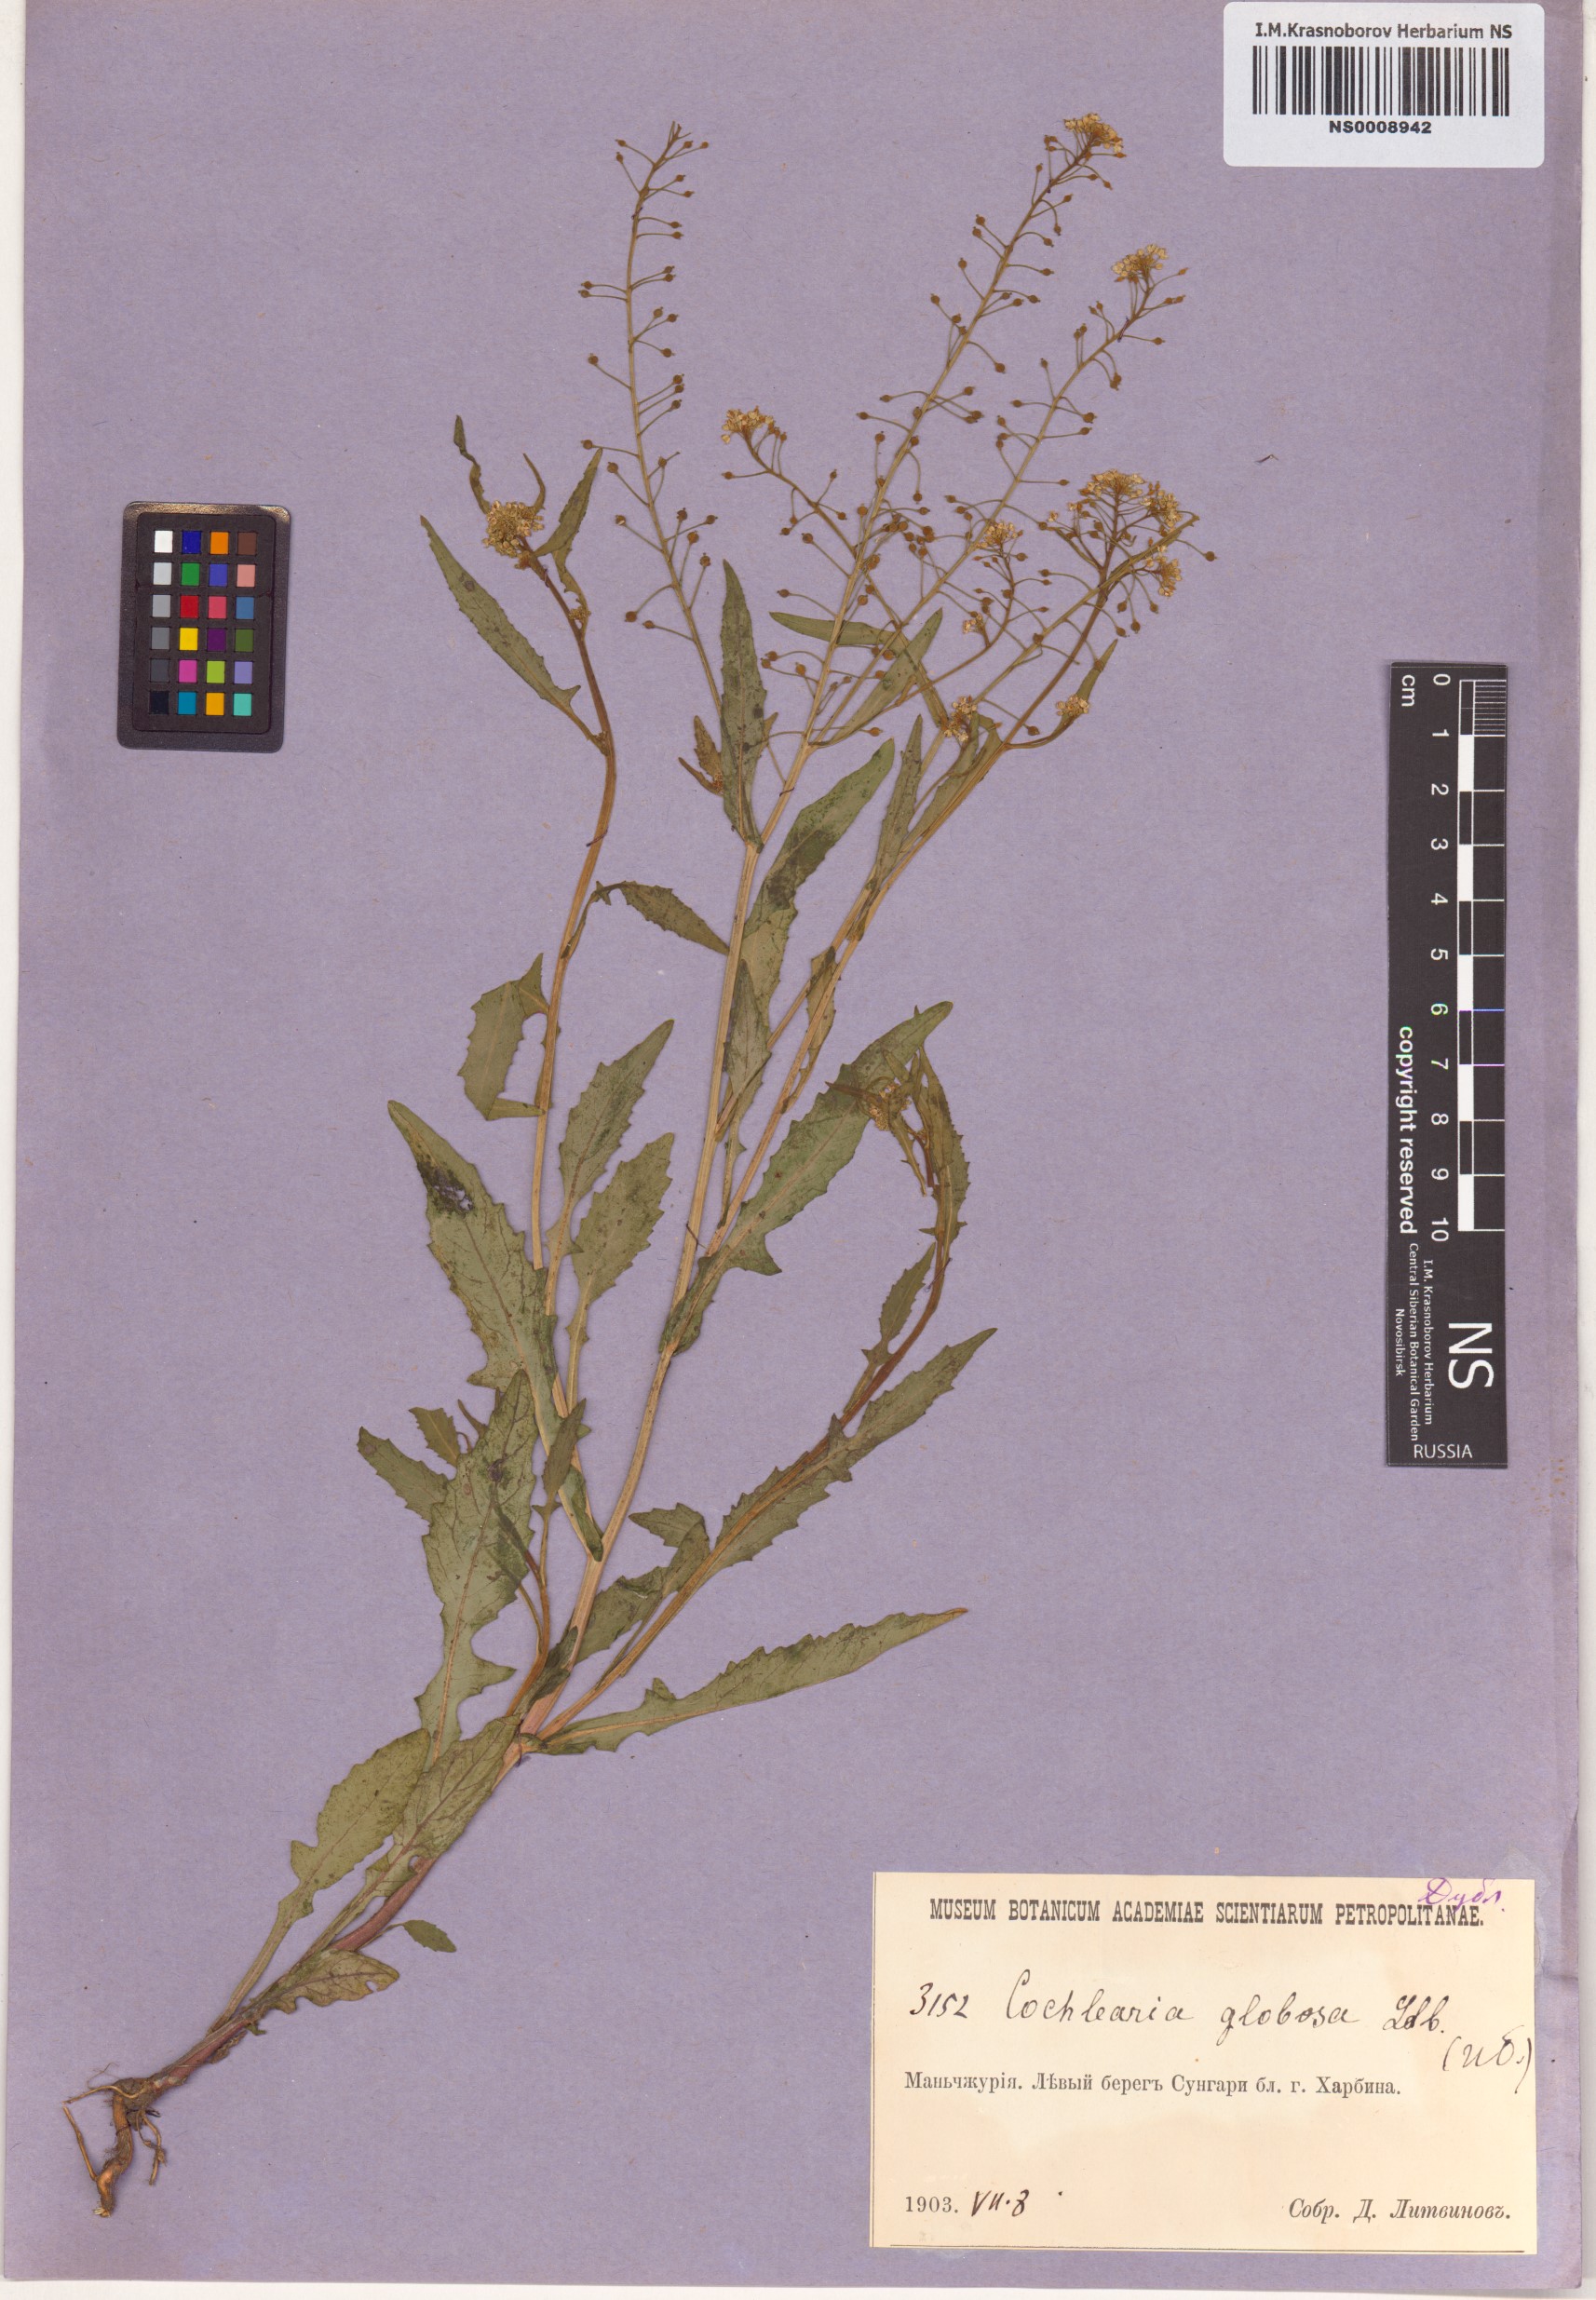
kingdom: Plantae
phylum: Tracheophyta
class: Magnoliopsida
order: Brassicales
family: Brassicaceae
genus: Rorippa
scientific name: Rorippa globosa
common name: Globe yellowcress
